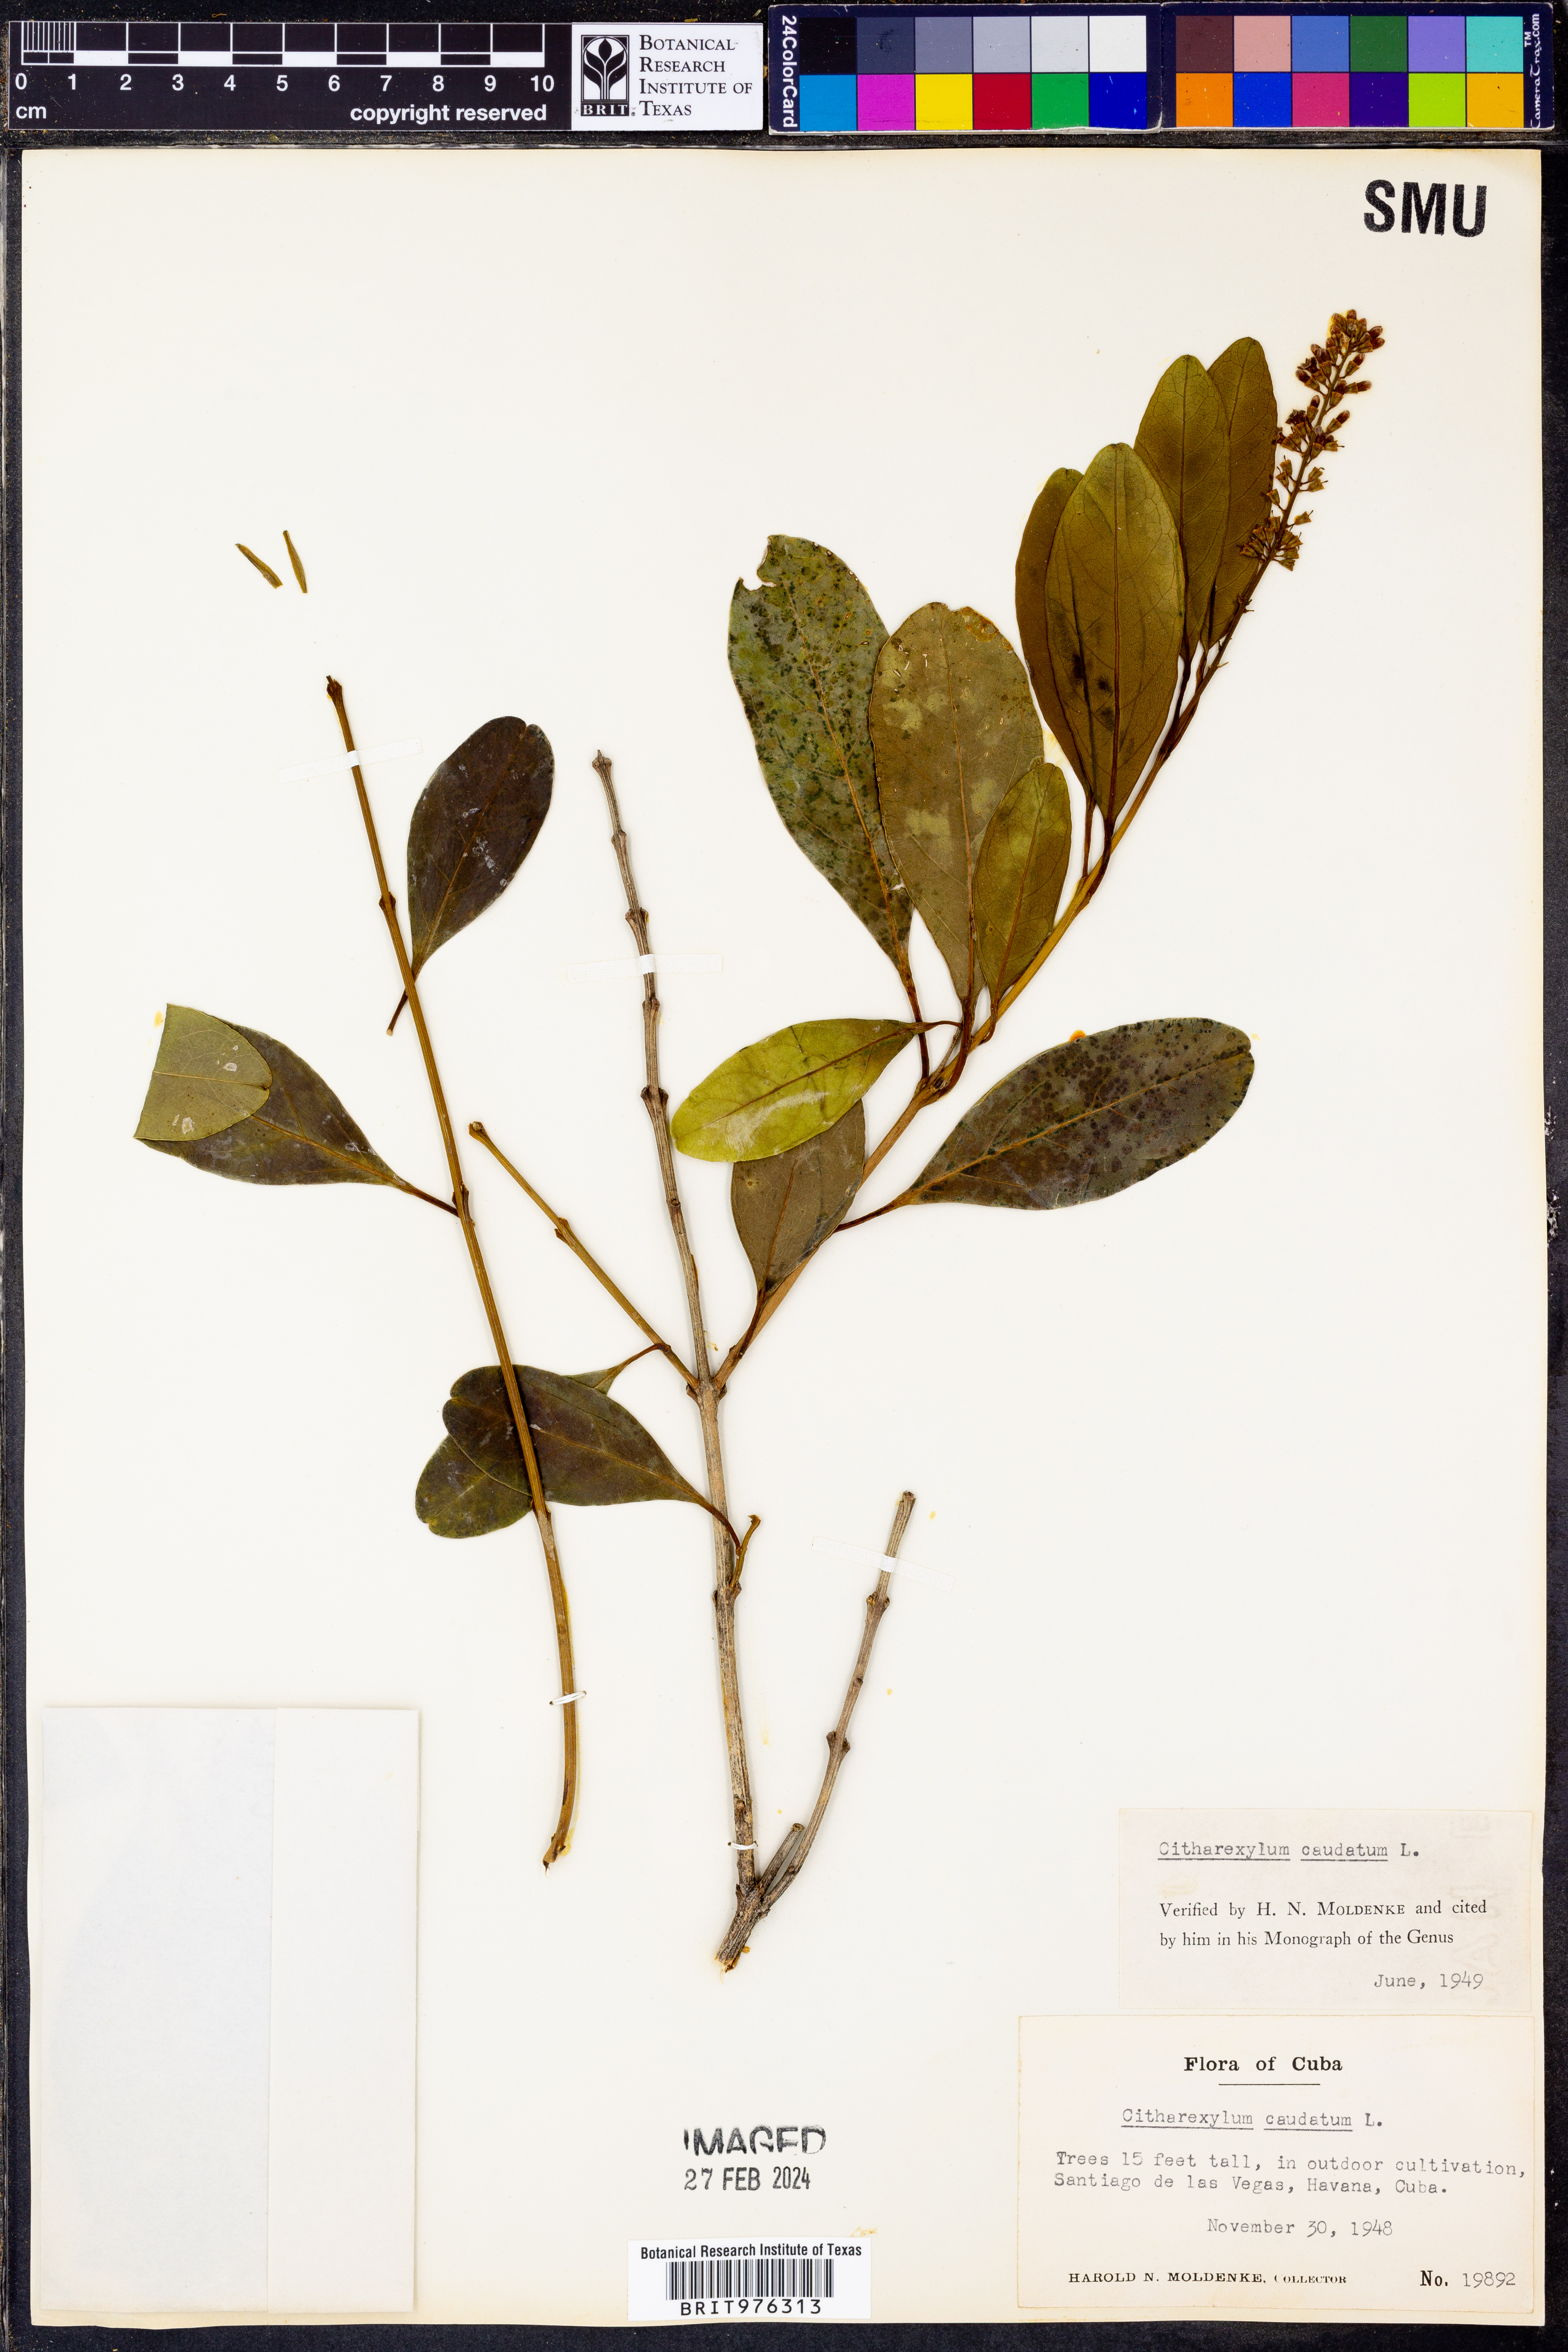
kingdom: Plantae
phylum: Tracheophyta
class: Magnoliopsida
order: Lamiales
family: Verbenaceae
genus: Citharexylum
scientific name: Citharexylum
